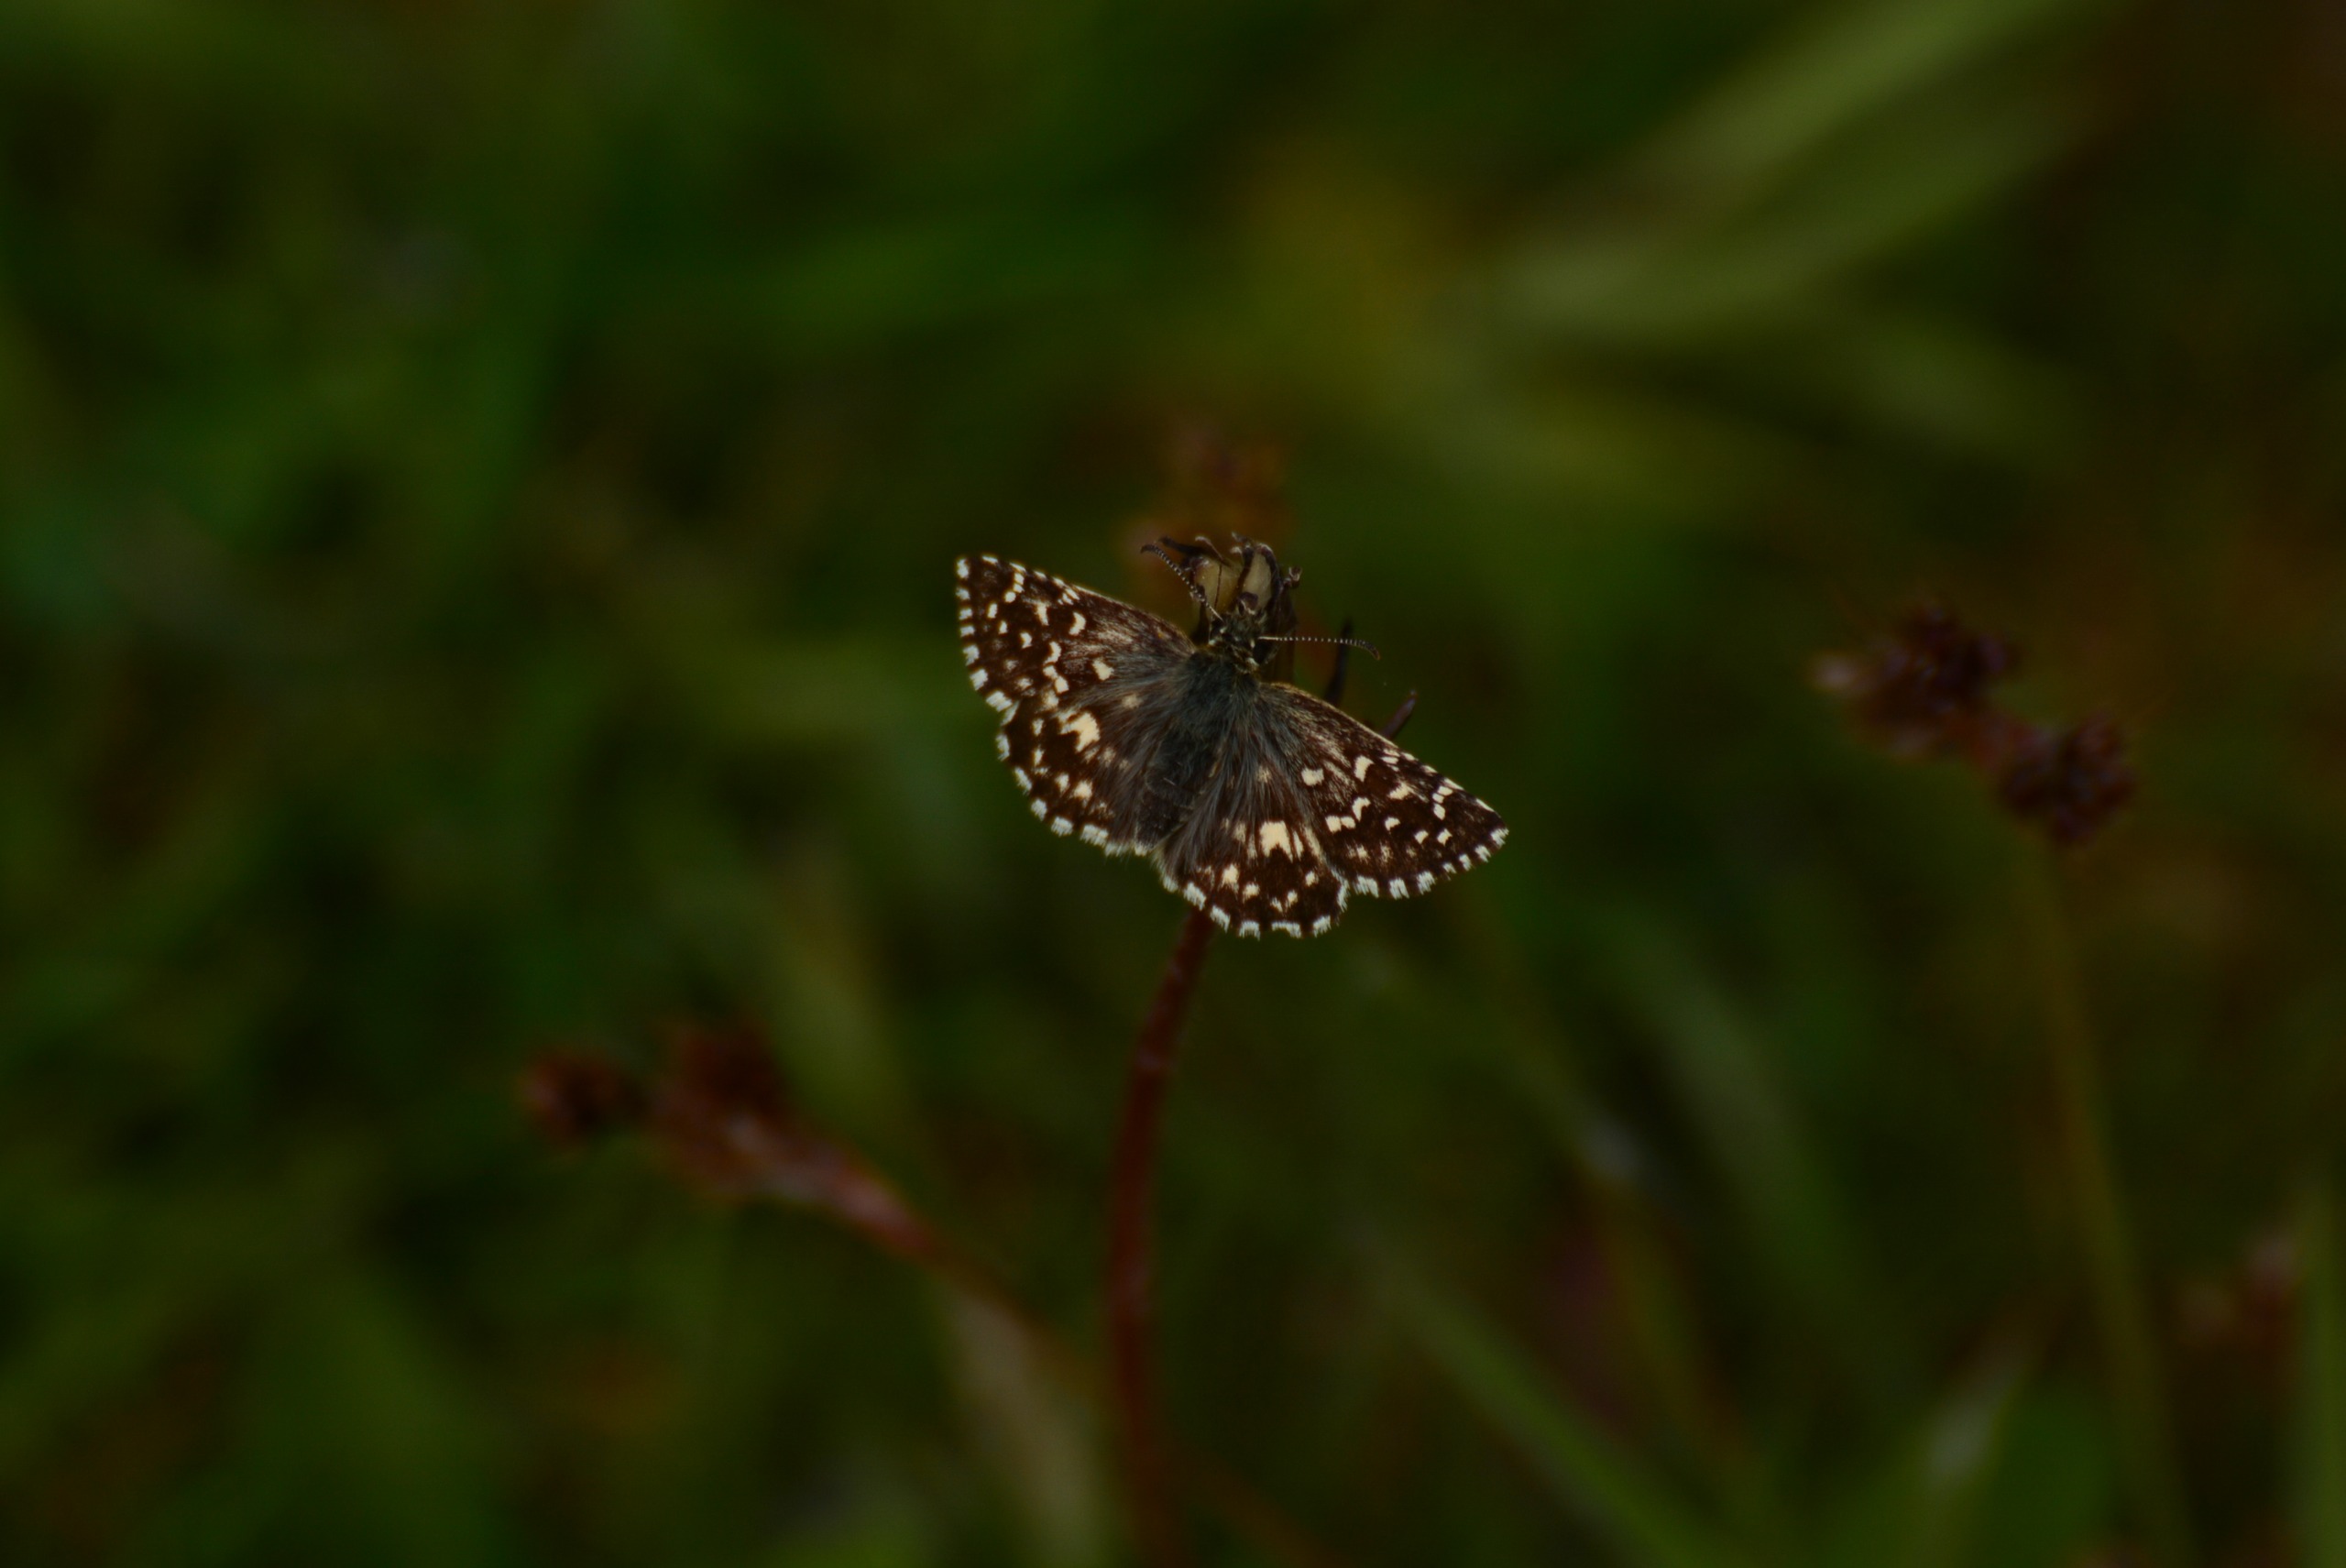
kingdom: Animalia
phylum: Arthropoda
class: Insecta
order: Lepidoptera
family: Hesperiidae
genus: Pyrgus
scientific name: Pyrgus malvae
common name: Spættet bredpande
